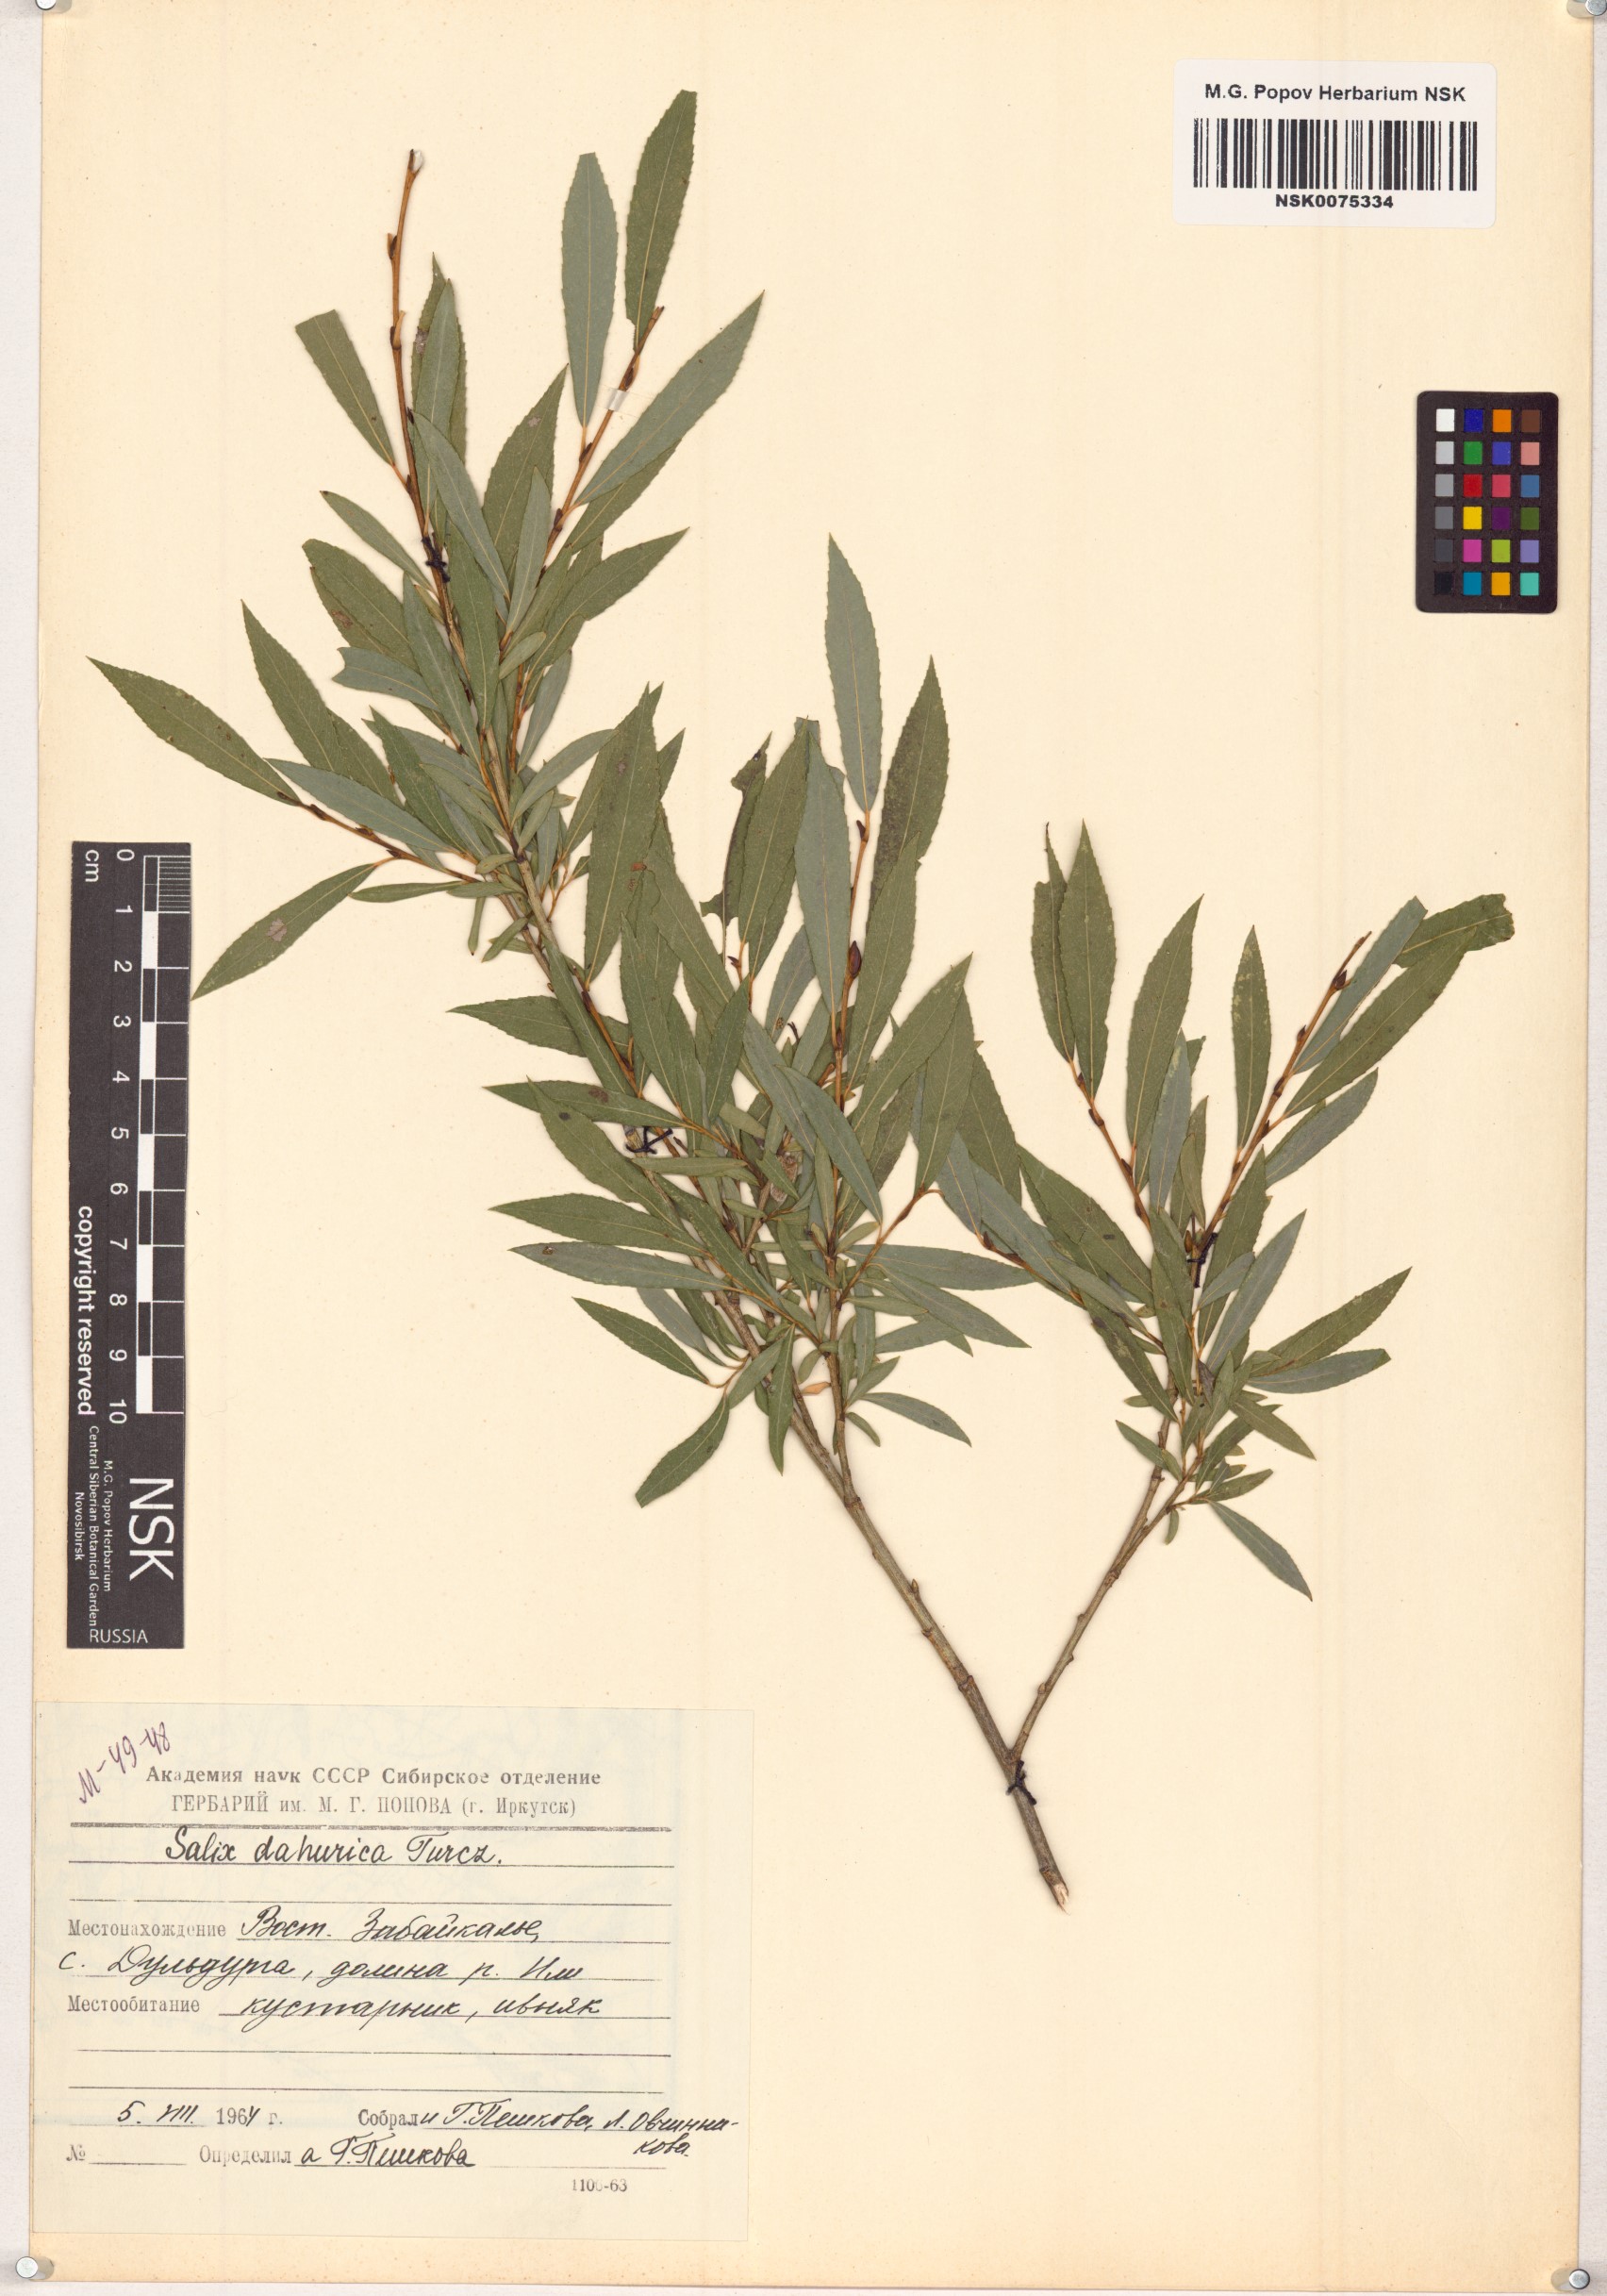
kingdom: Plantae
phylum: Tracheophyta
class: Magnoliopsida
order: Malpighiales
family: Salicaceae
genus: Salix
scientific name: Salix
